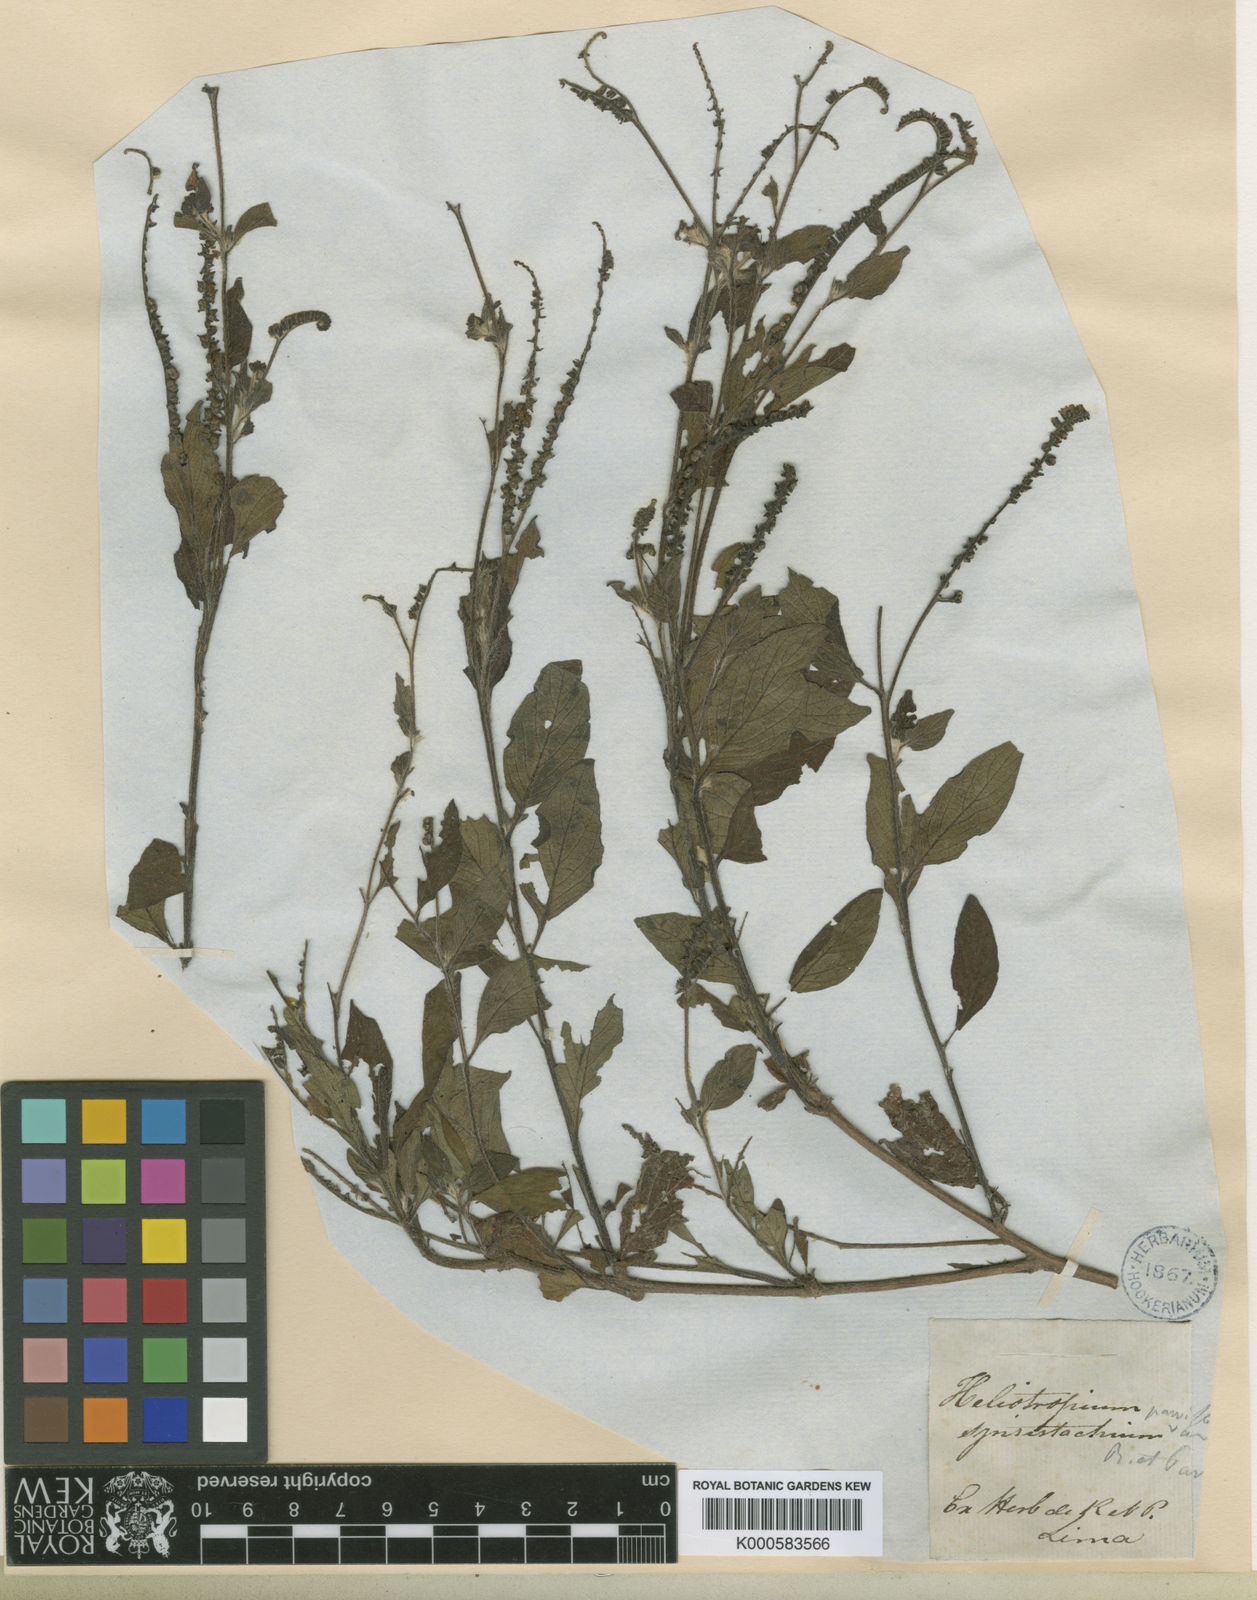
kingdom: Plantae
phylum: Tracheophyta
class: Magnoliopsida
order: Boraginales
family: Heliotropiaceae
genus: Heliotropium
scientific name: Heliotropium angiospermum
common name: Eye bright
